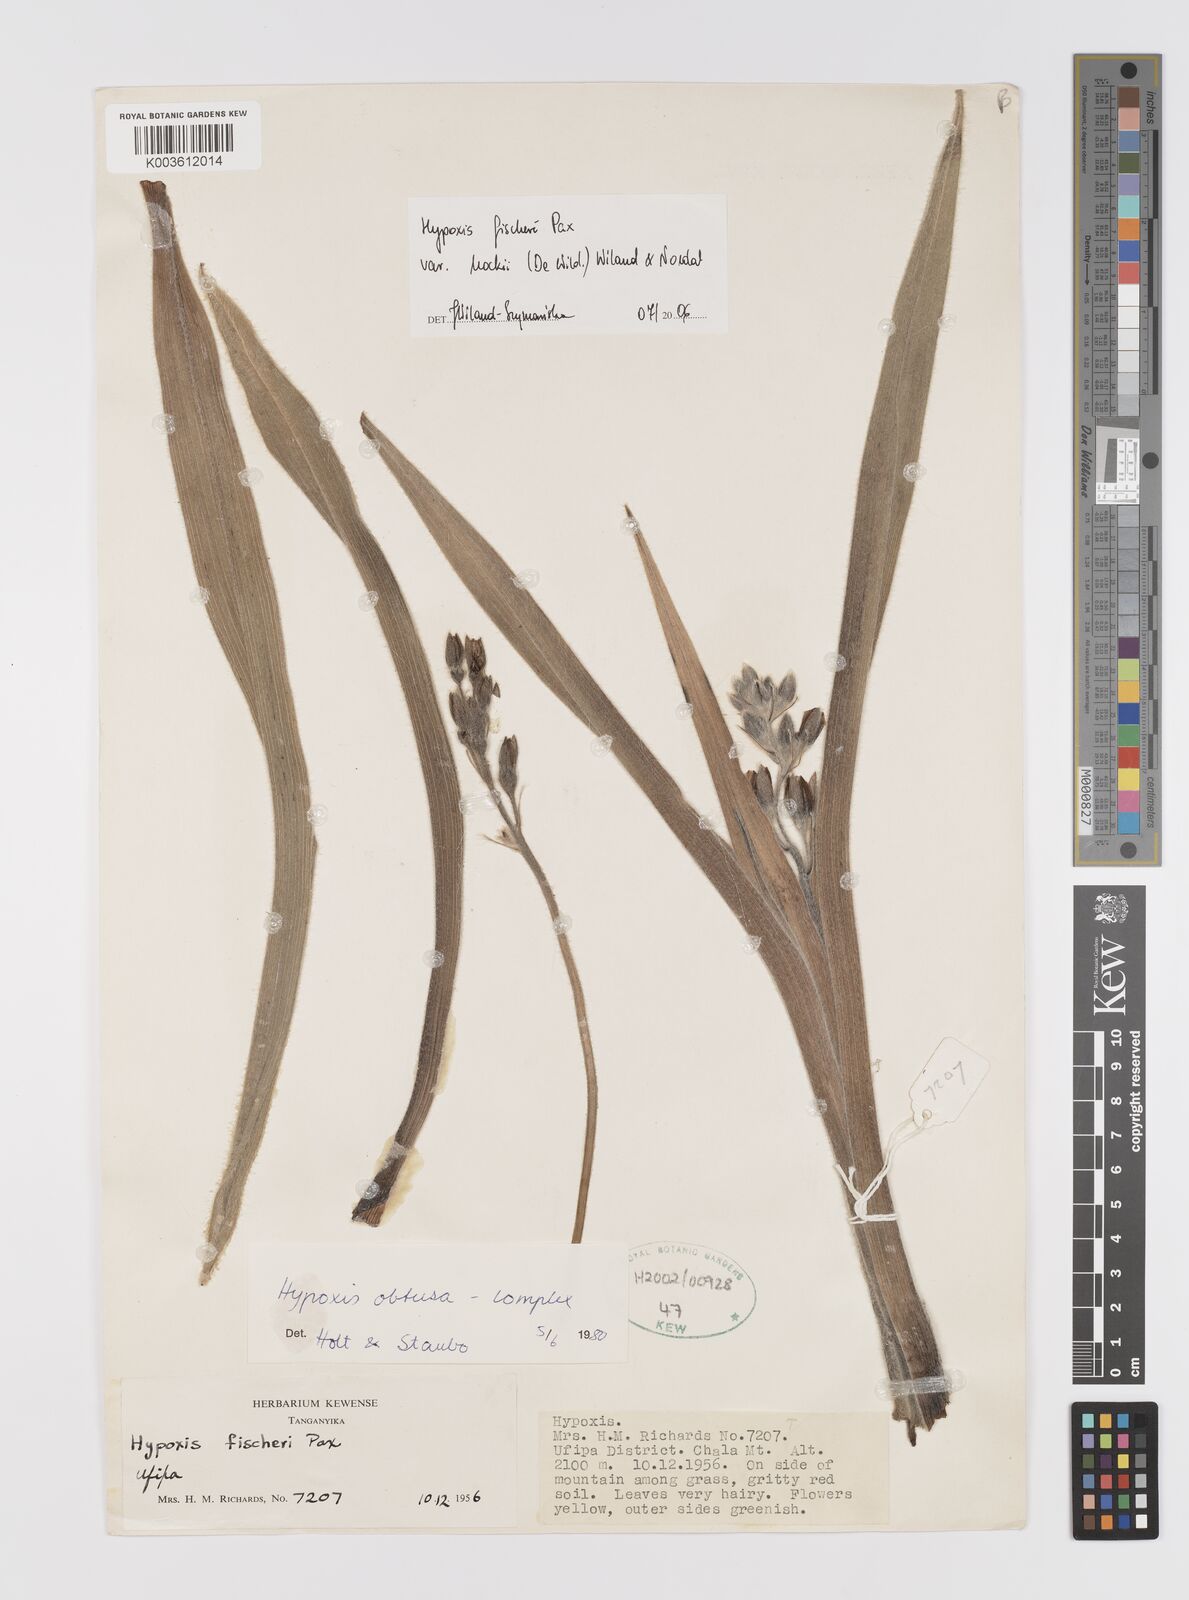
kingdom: Plantae
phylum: Tracheophyta
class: Liliopsida
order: Asparagales
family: Hypoxidaceae
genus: Hypoxis
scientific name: Hypoxis fischeri
